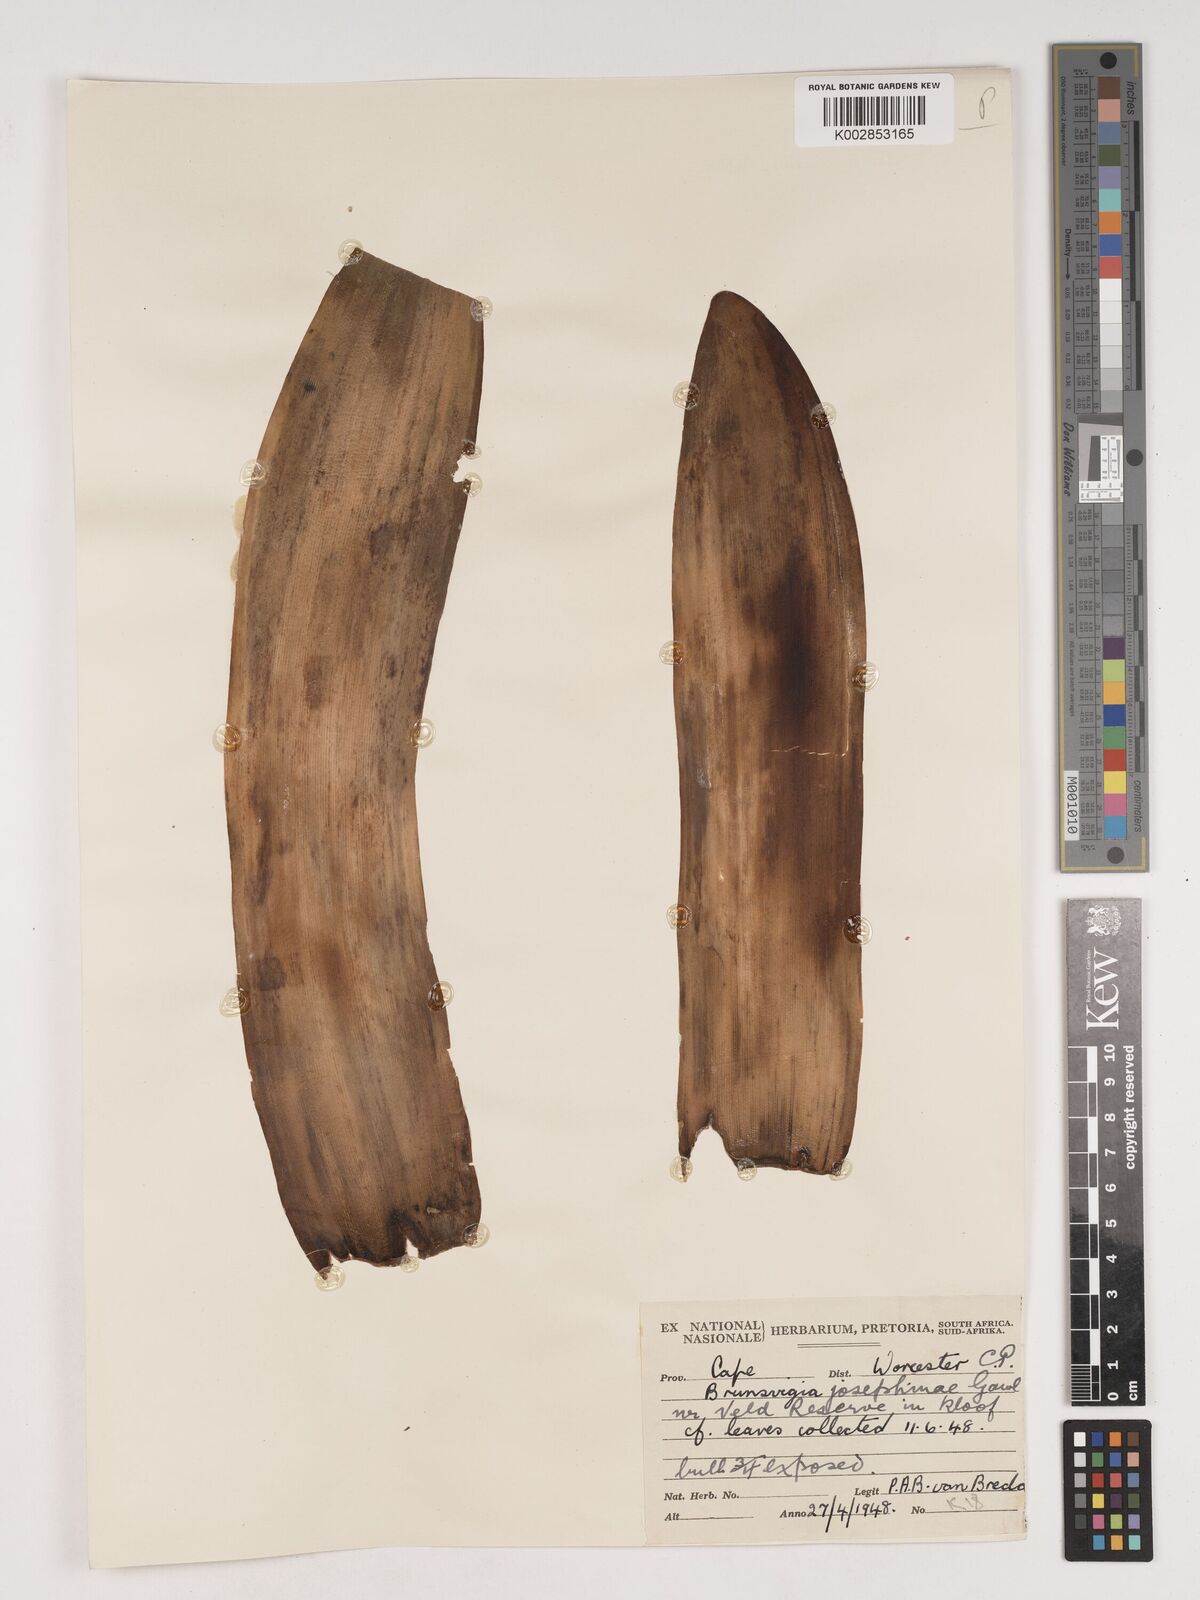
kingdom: Plantae
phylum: Tracheophyta
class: Liliopsida
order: Asparagales
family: Amaryllidaceae
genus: Brunsvigia
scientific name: Brunsvigia josephinae
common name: Josephine's-lily
